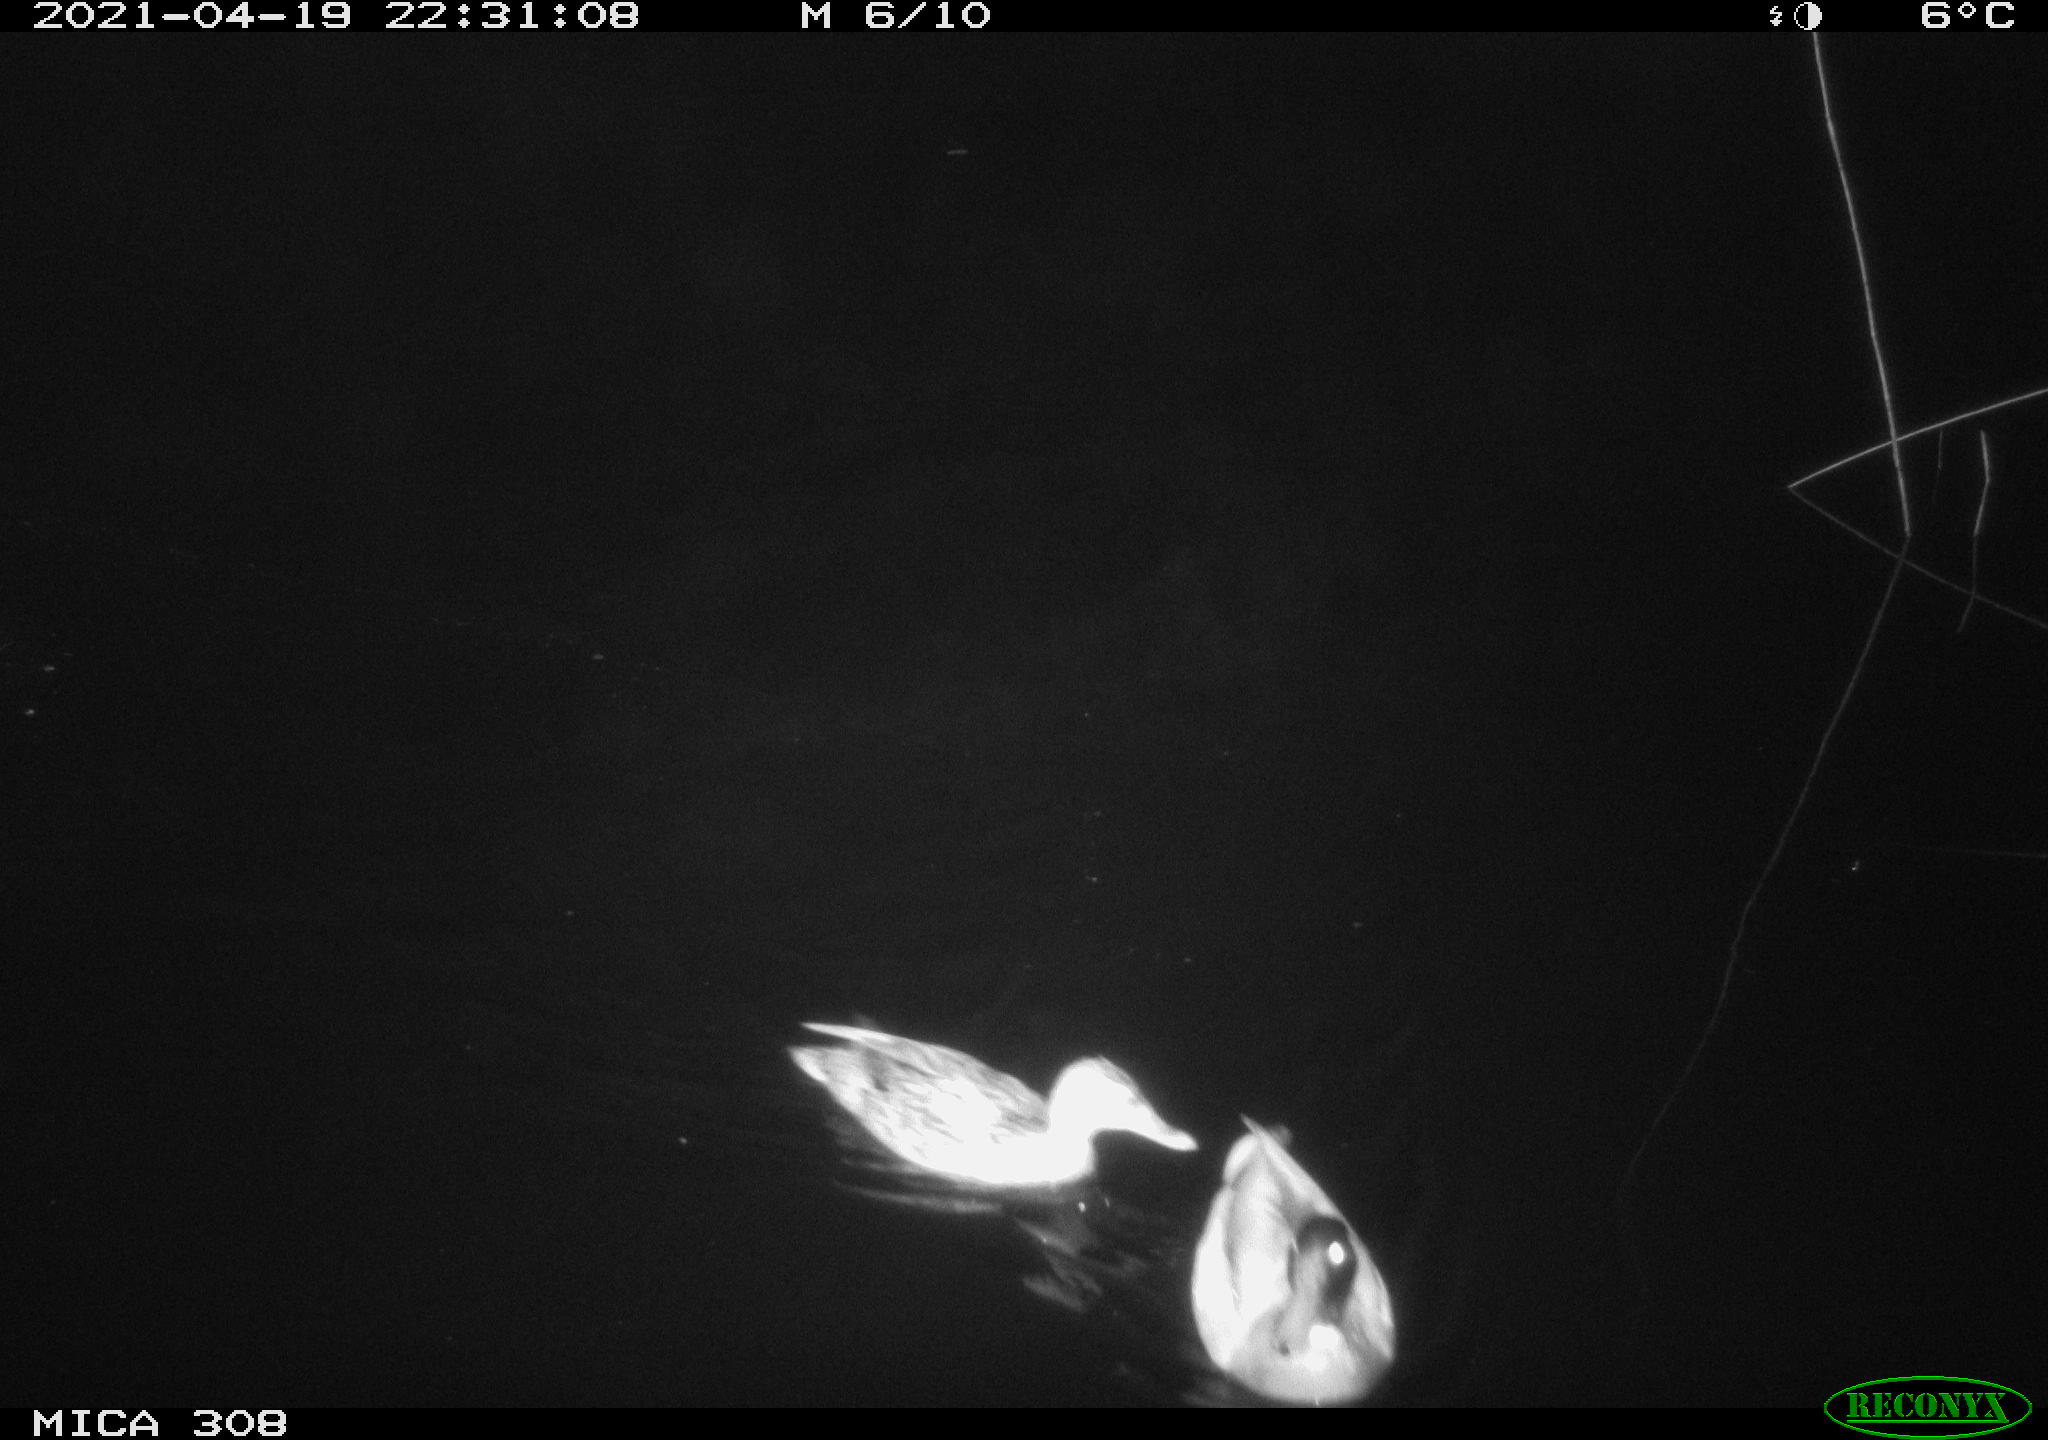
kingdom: Animalia
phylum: Chordata
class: Aves
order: Anseriformes
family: Anatidae
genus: Mareca
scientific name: Mareca strepera
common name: Gadwall
